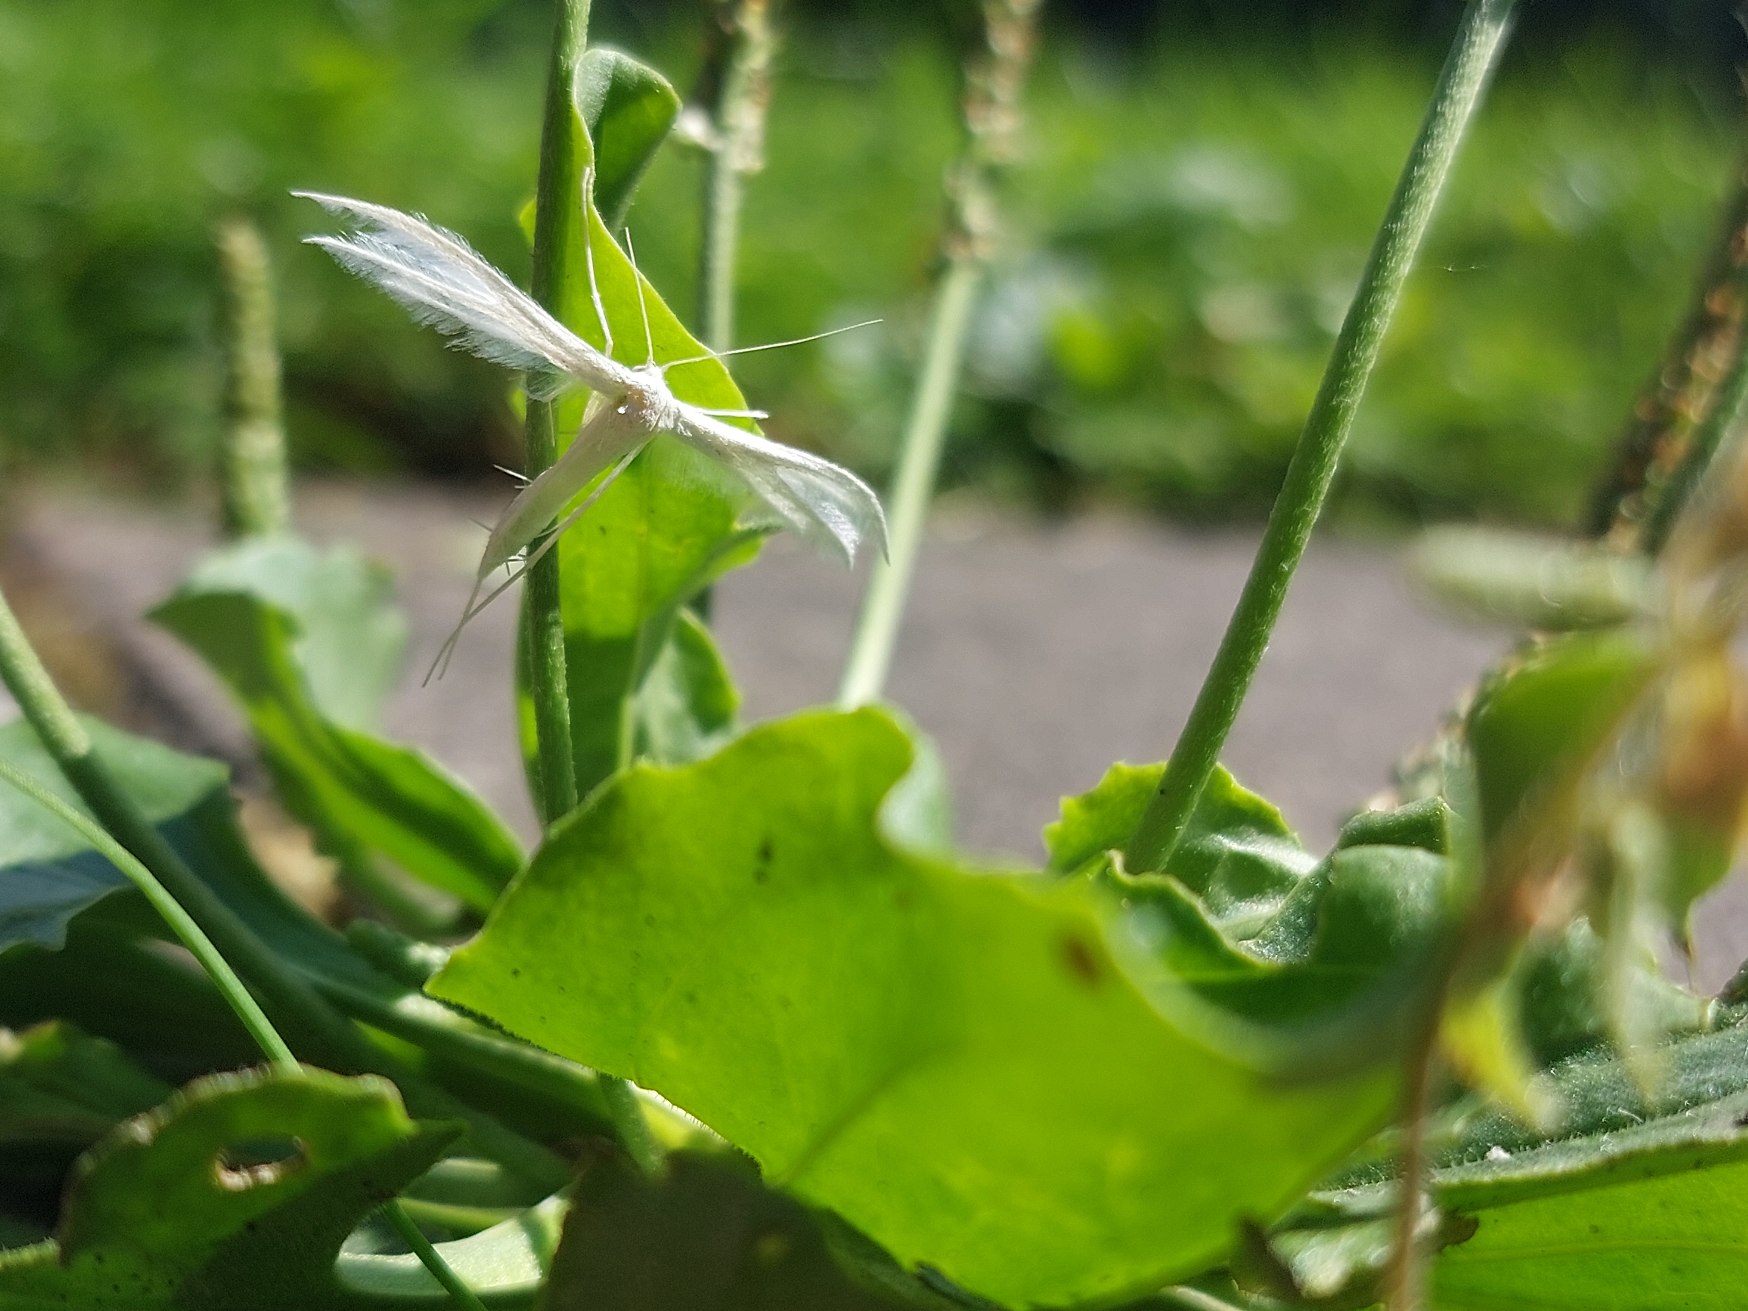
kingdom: Animalia
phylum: Arthropoda
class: Insecta
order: Lepidoptera
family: Pterophoridae
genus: Pterophorus
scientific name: Pterophorus pentadactyla
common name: Hvidt fjermøl
